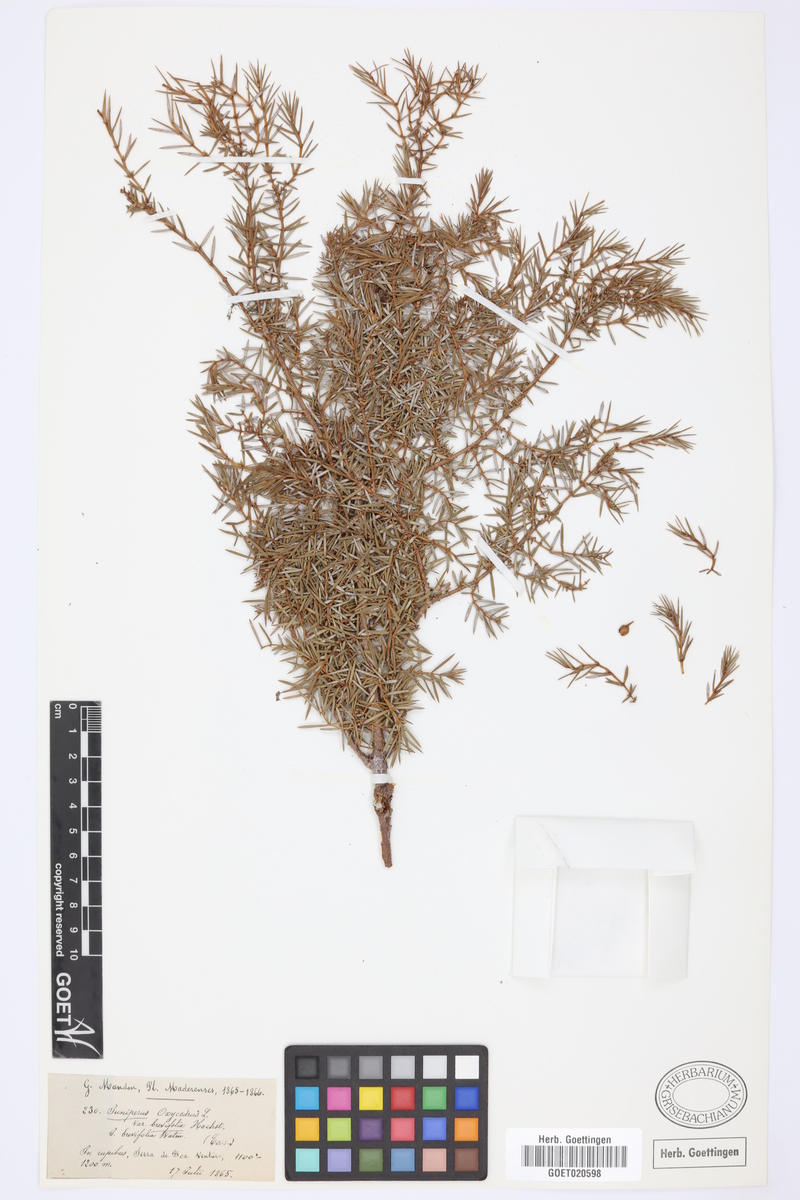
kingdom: Plantae
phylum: Tracheophyta
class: Pinopsida
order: Pinales
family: Cupressaceae
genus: Juniperus
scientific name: Juniperus brevifolia
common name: Azores juniper
